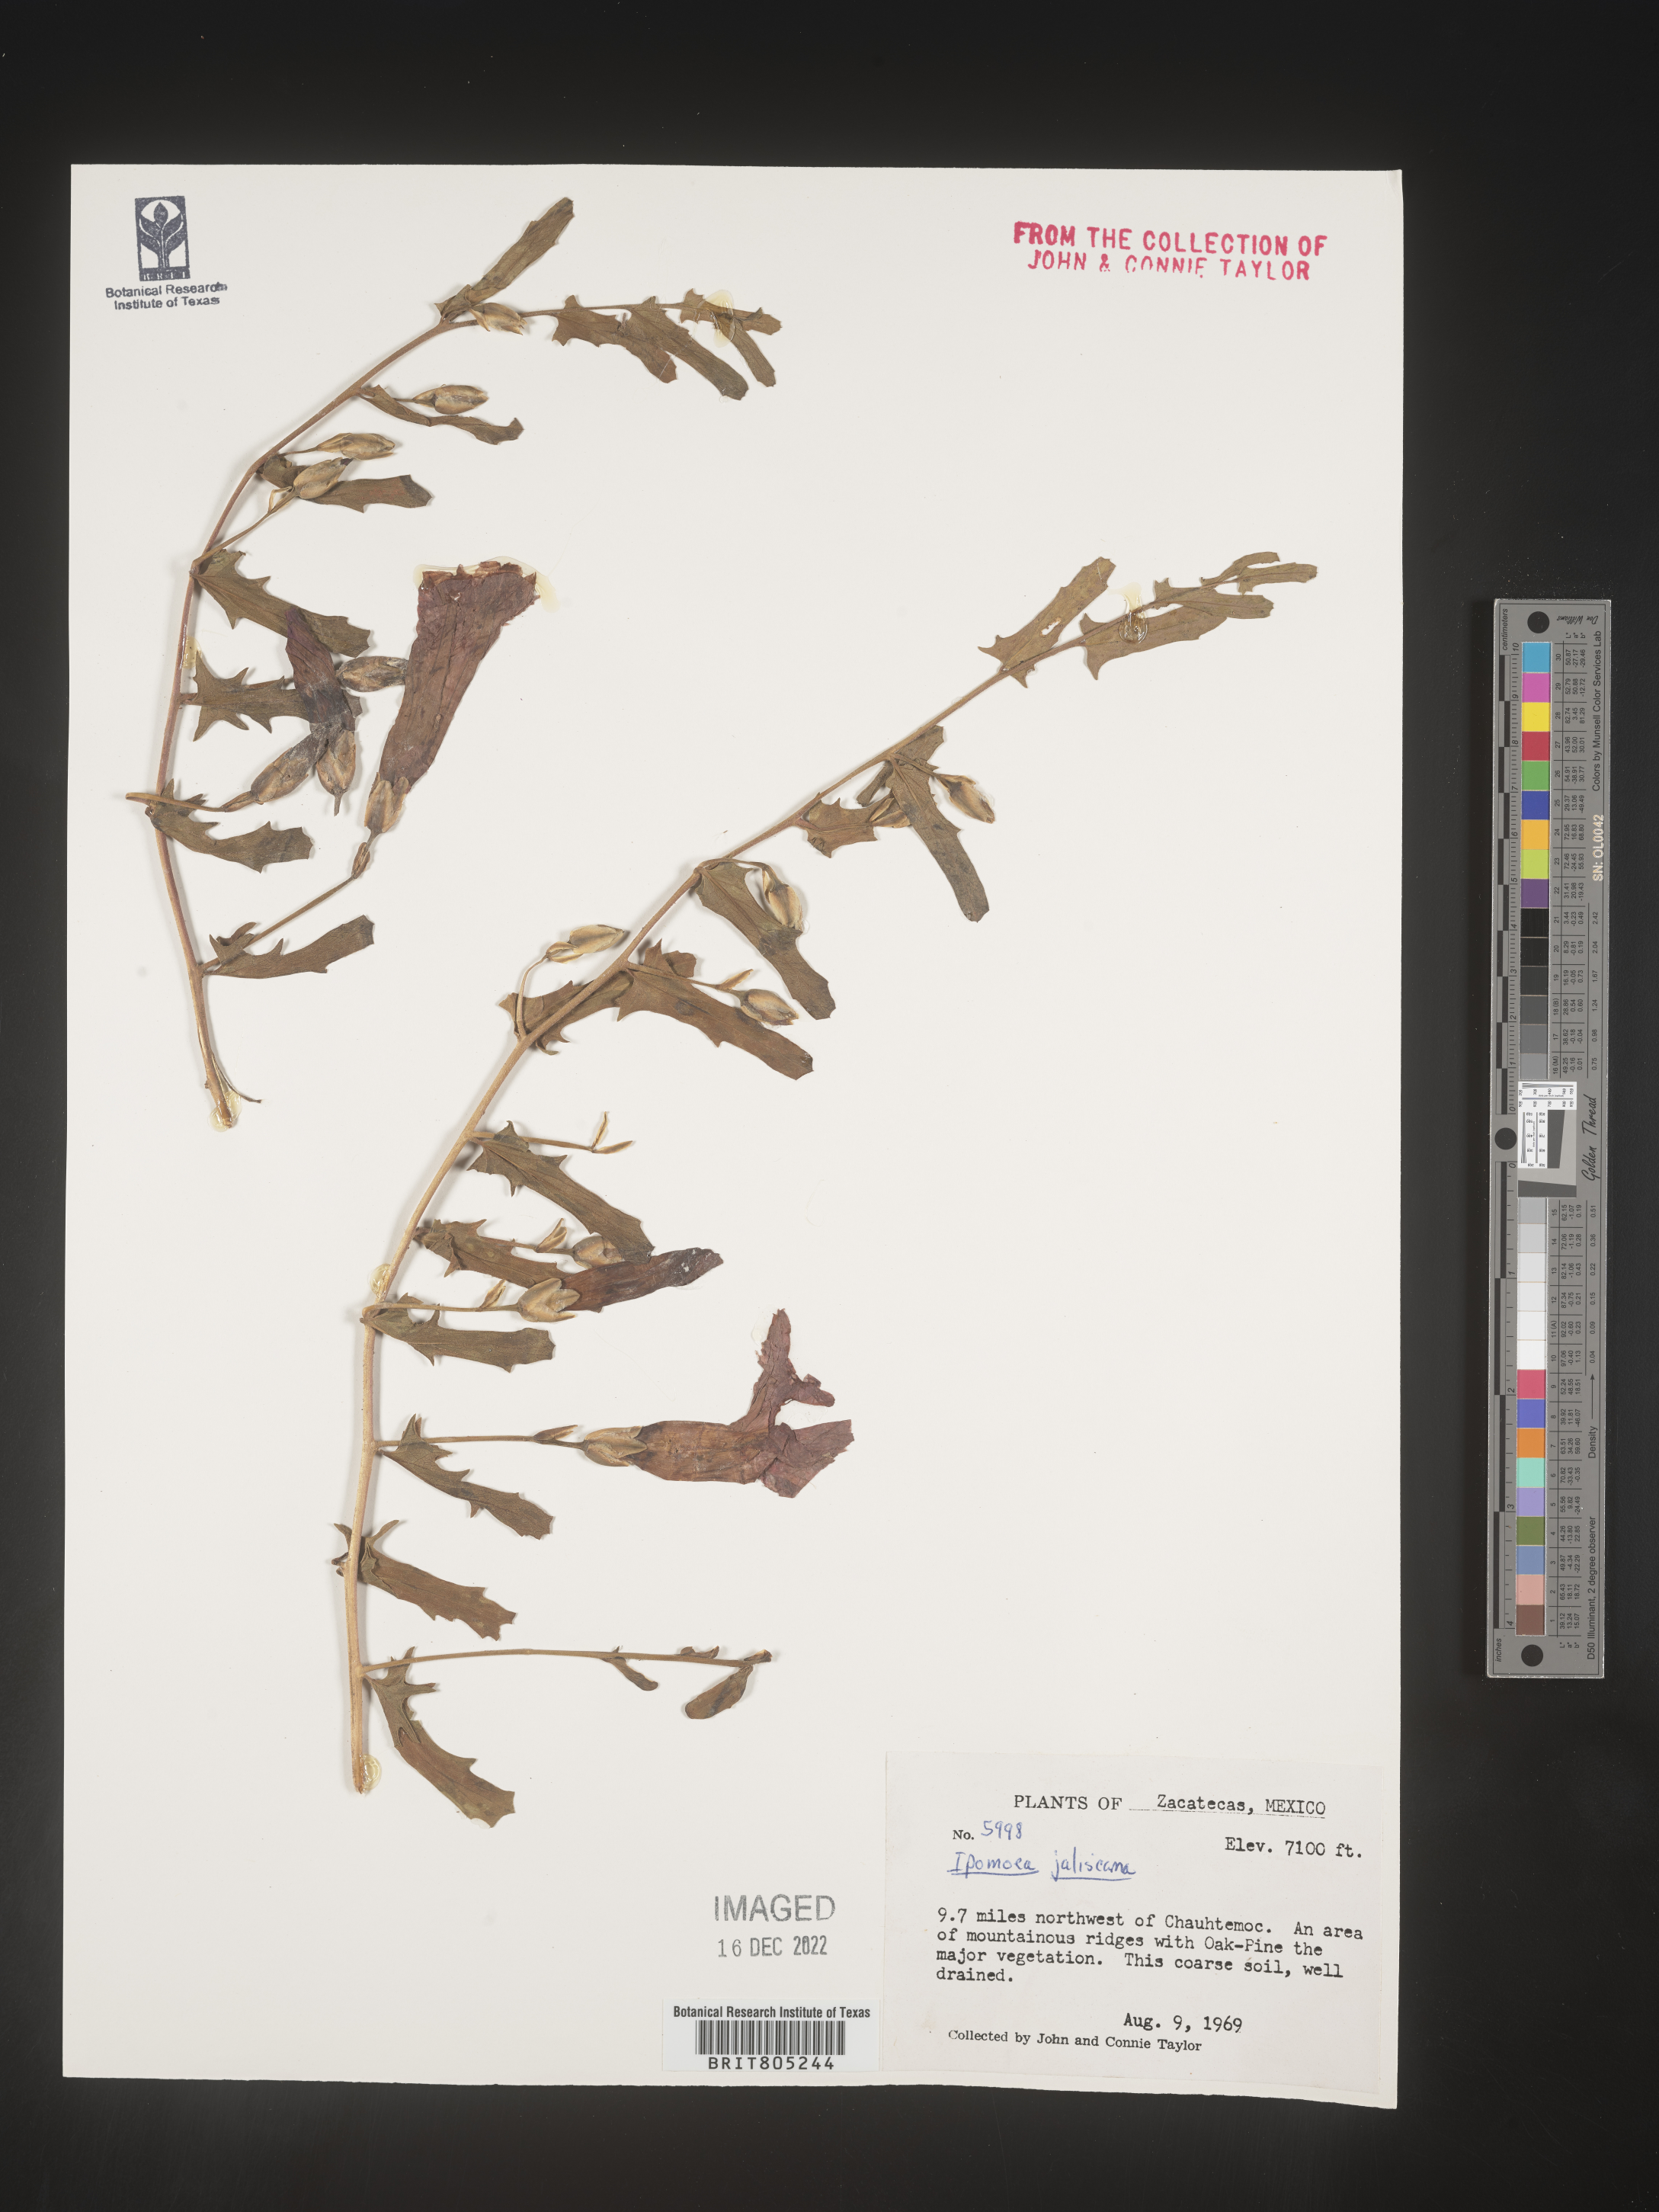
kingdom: Plantae
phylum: Tracheophyta
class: Magnoliopsida
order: Solanales
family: Convolvulaceae
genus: Ipomoea
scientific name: Ipomoea
